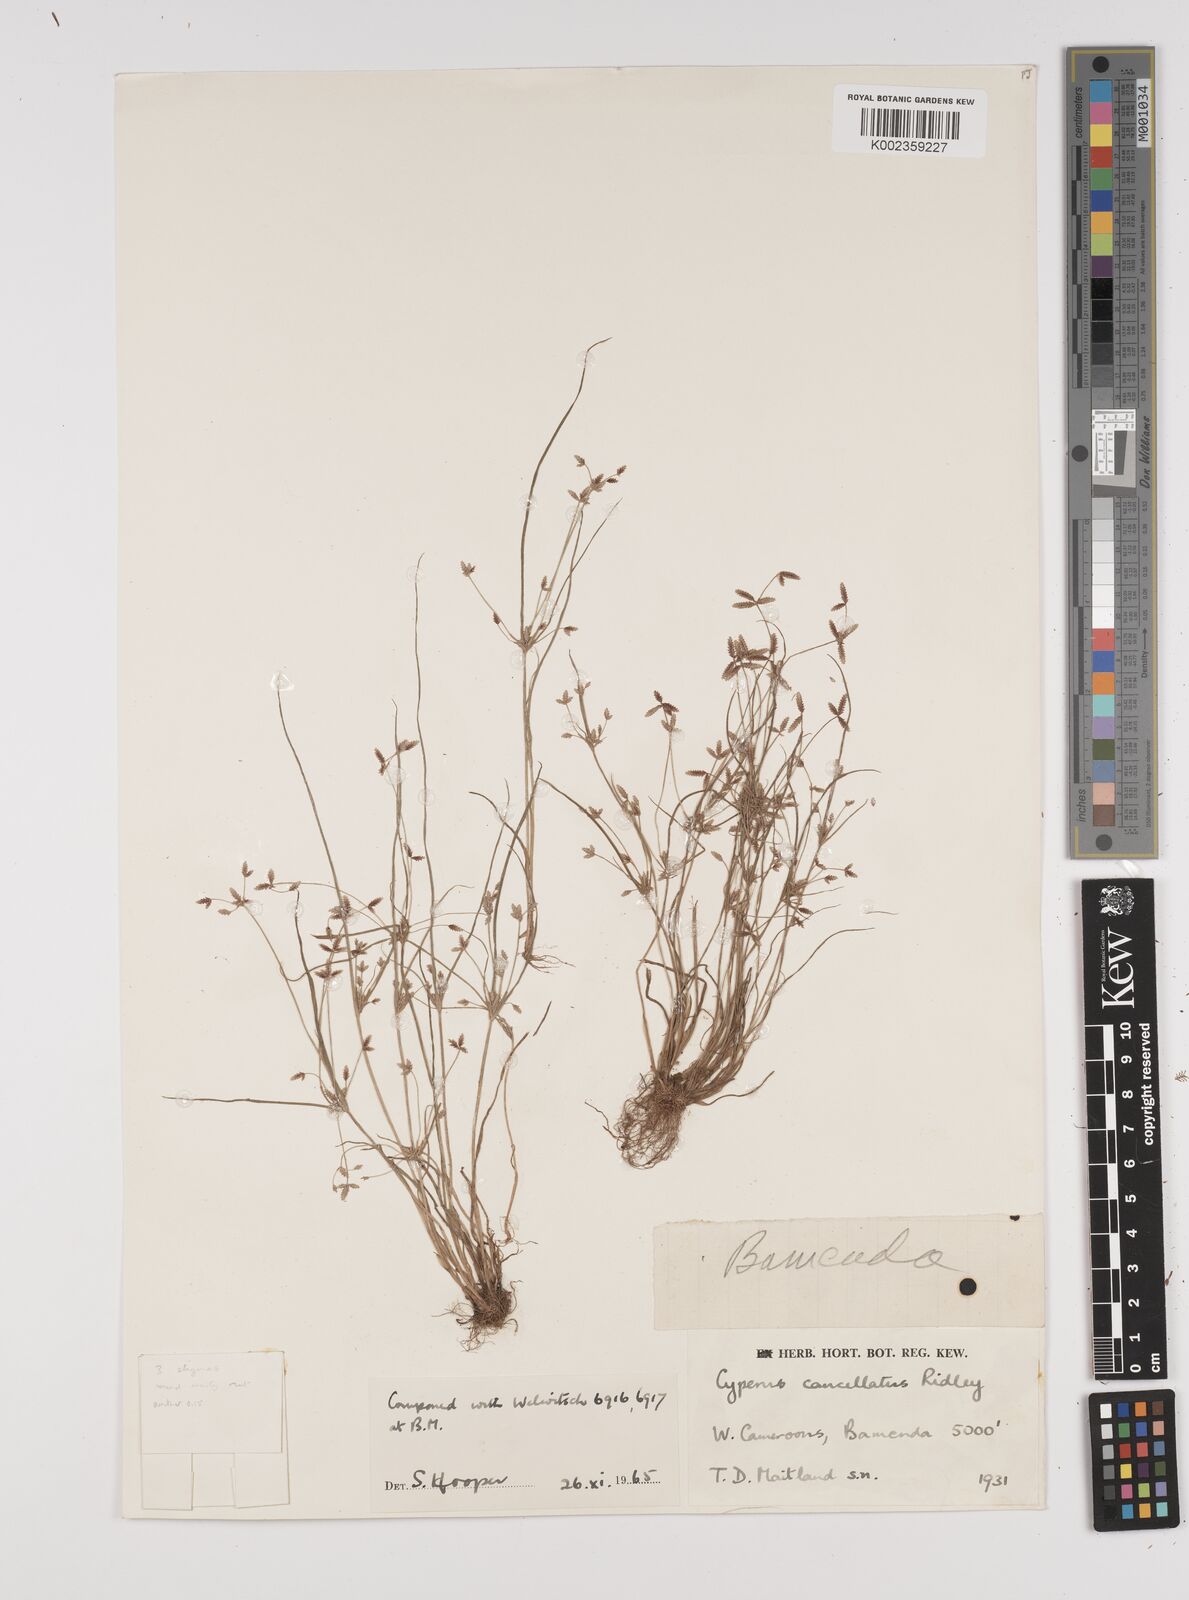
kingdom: Plantae
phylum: Tracheophyta
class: Liliopsida
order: Poales
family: Cyperaceae
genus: Cyperus
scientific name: Cyperus haspan
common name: Haspan flatsedge
